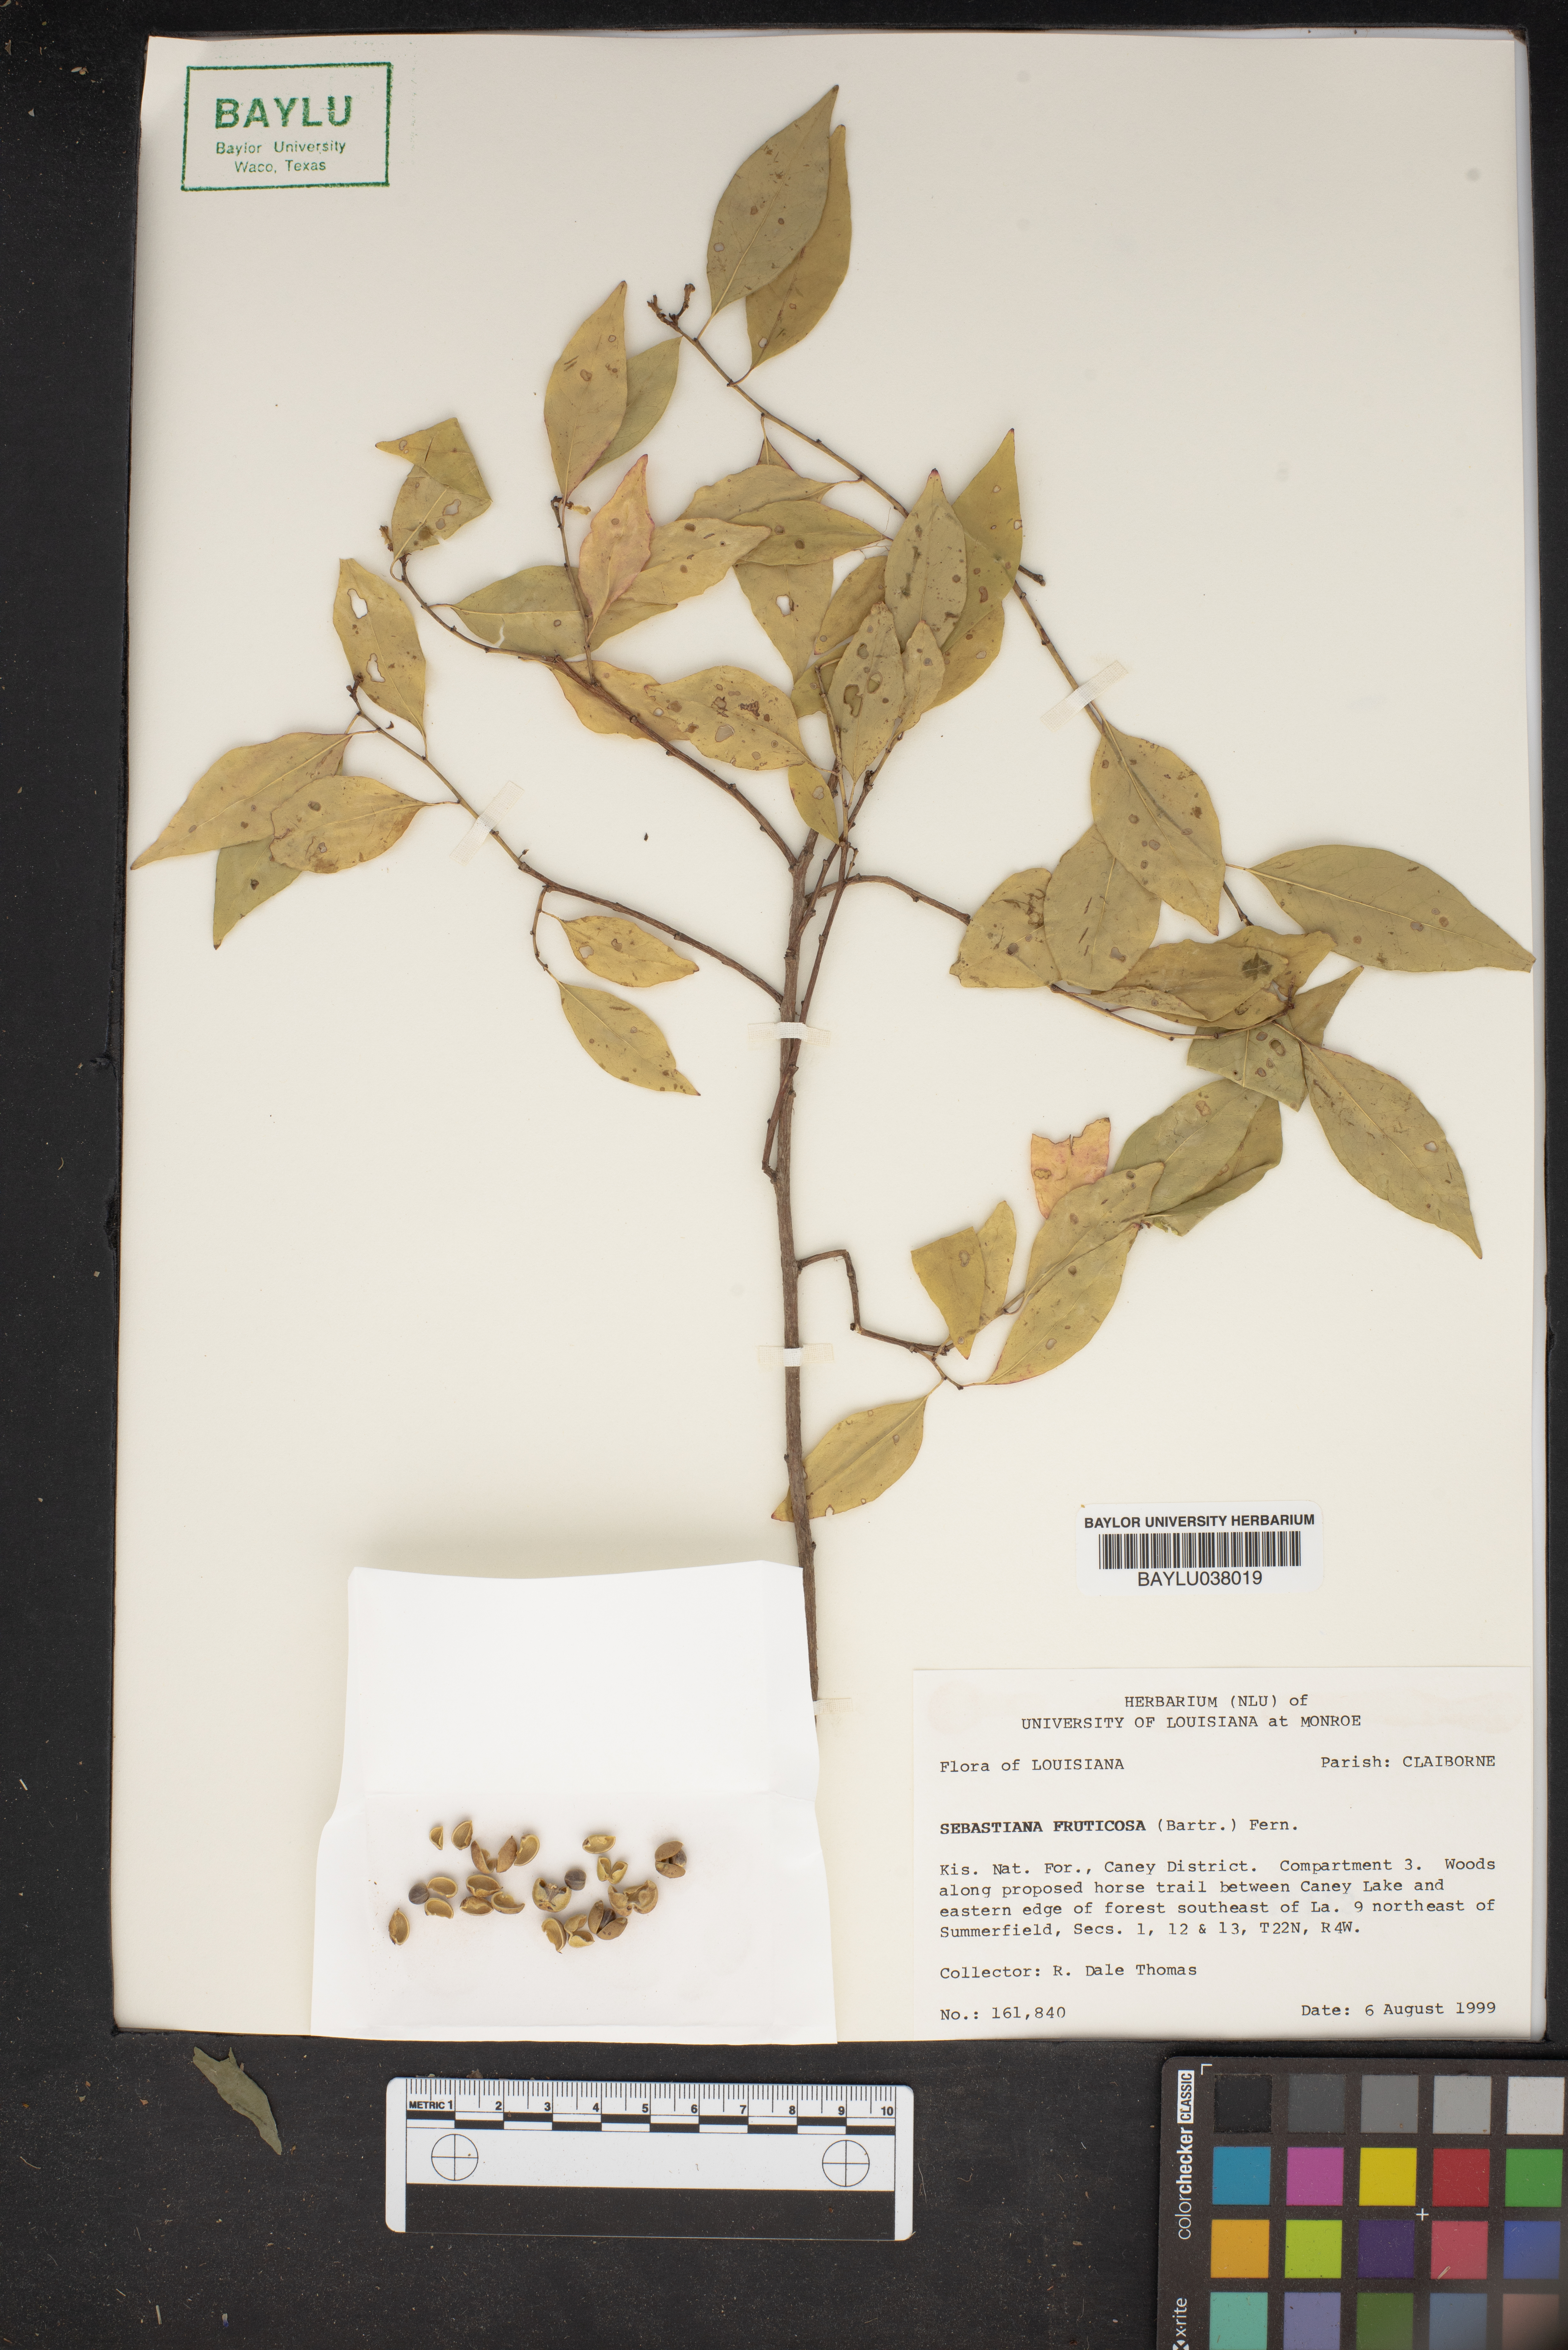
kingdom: Plantae
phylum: Tracheophyta
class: Magnoliopsida
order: Malpighiales
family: Euphorbiaceae
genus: Ditrysinia
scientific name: Ditrysinia fruticosa
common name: Gulf sebastian-bush
